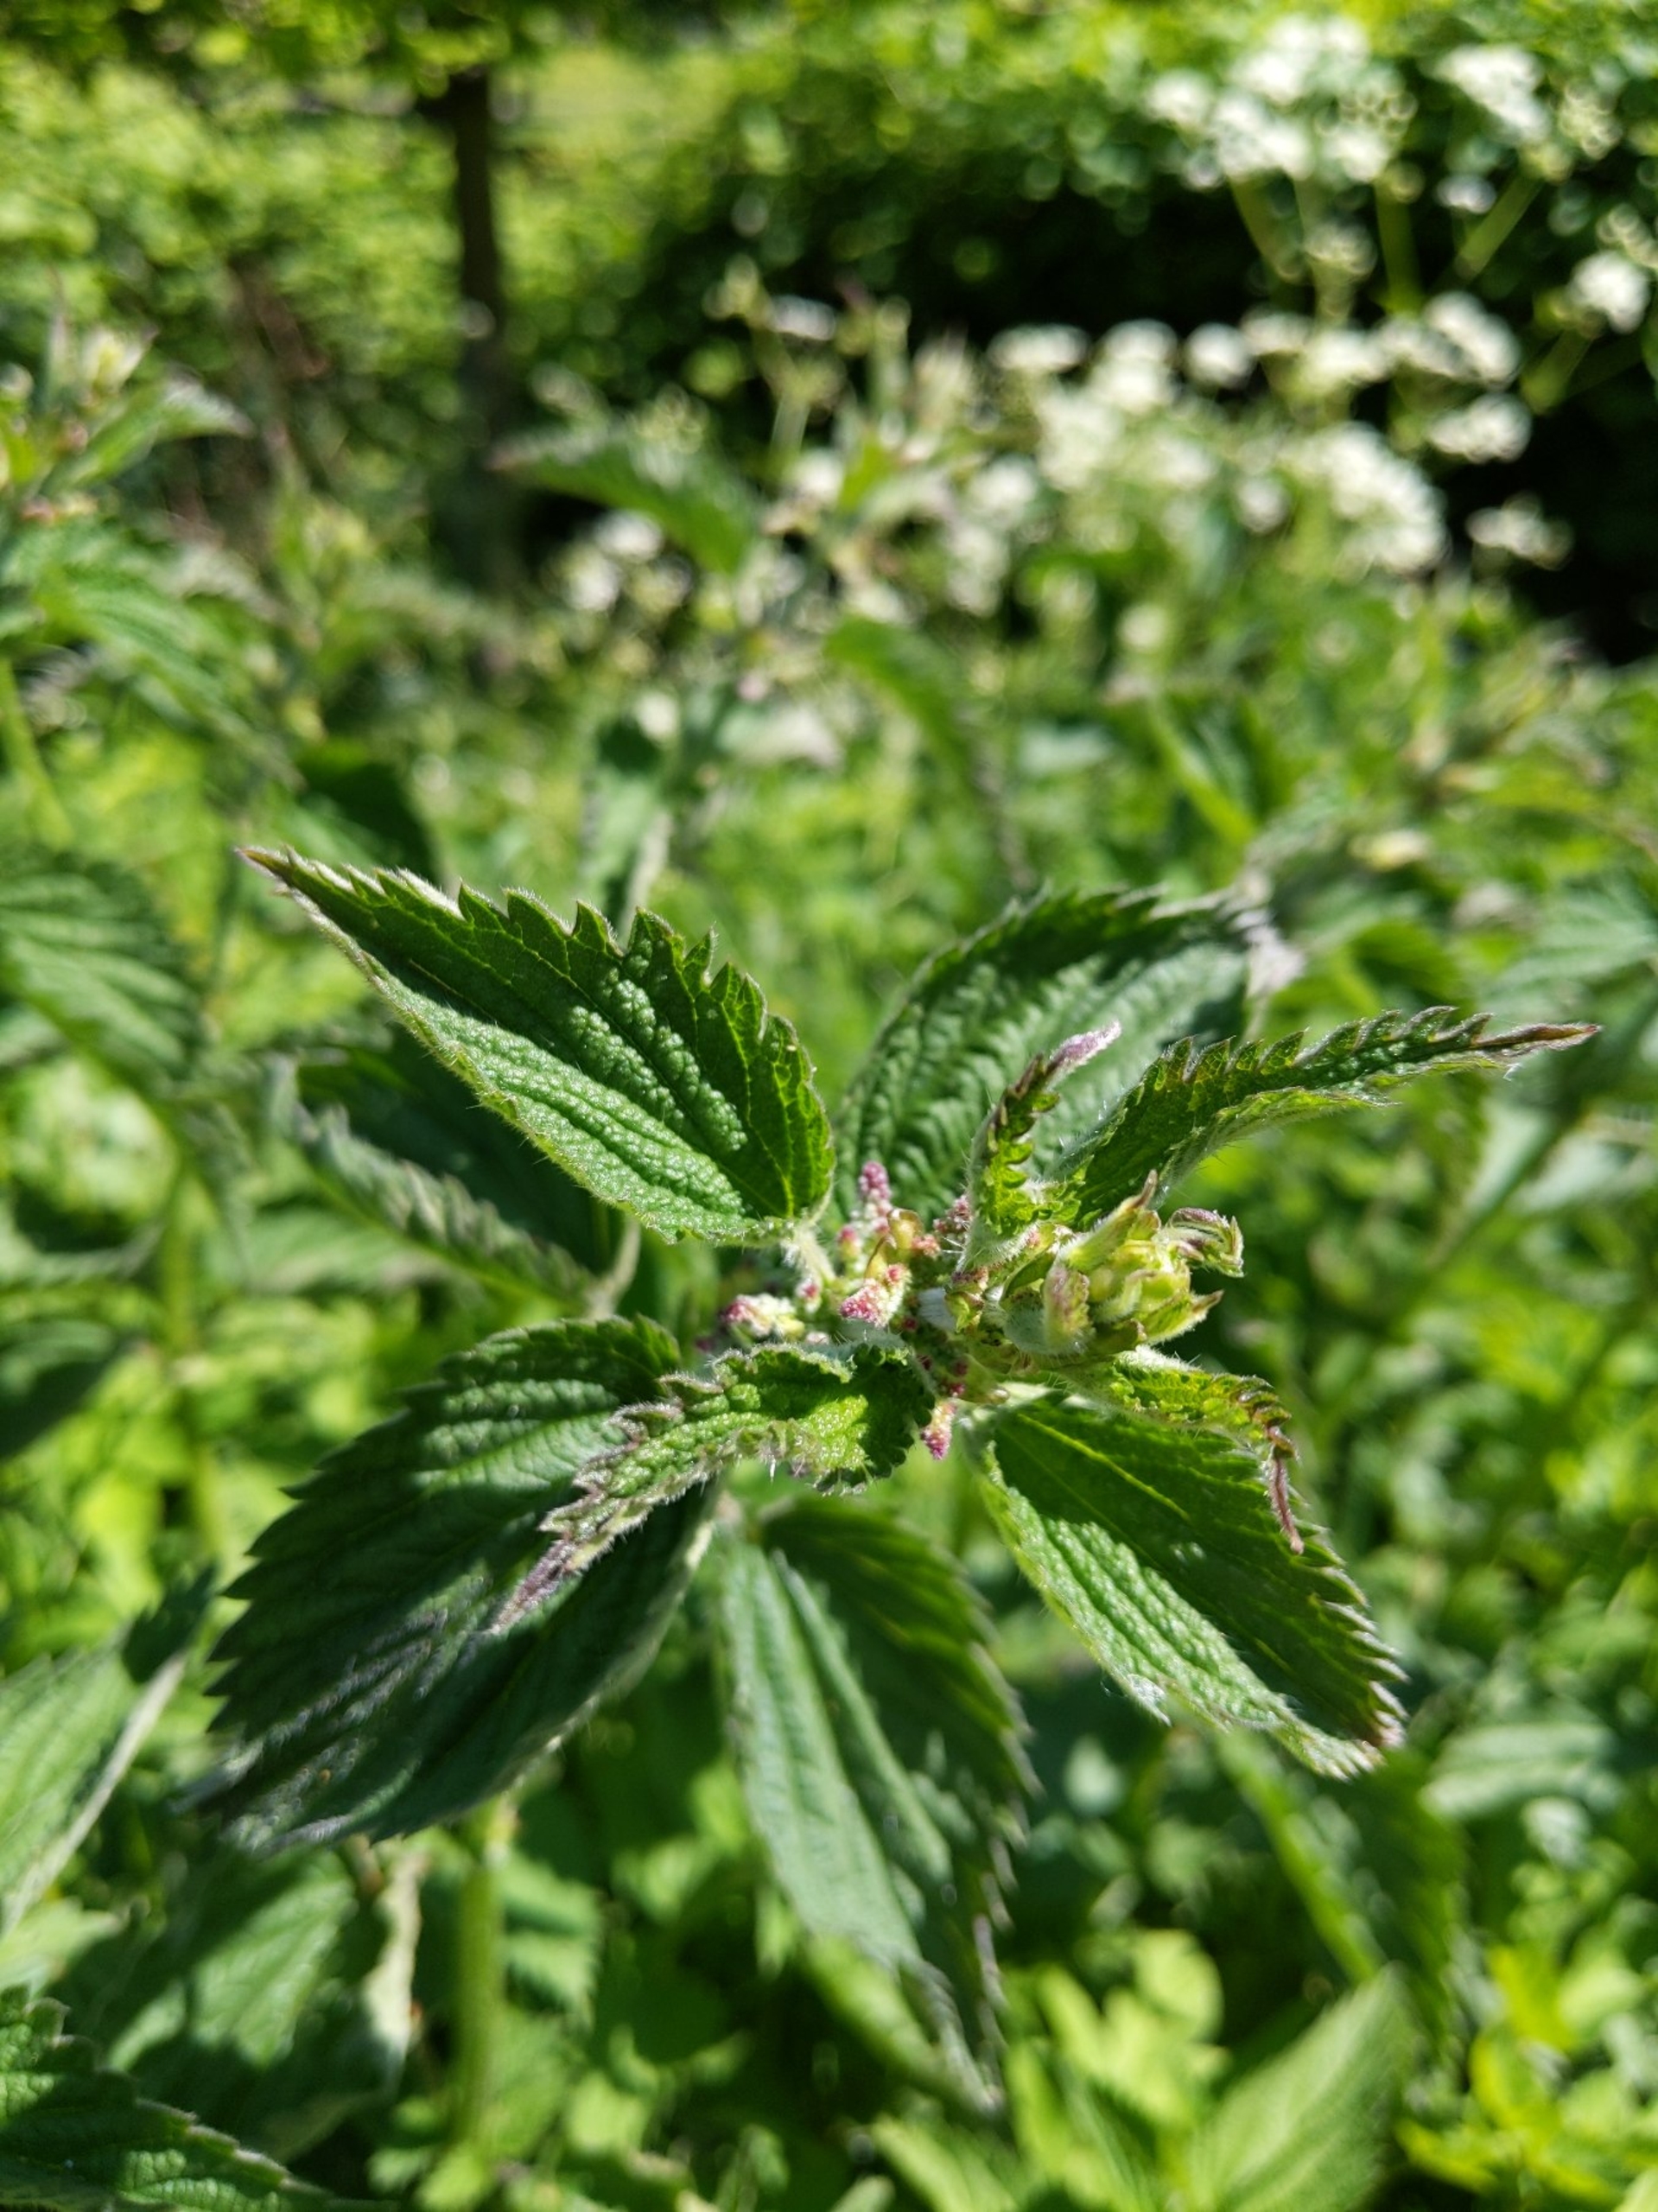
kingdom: Plantae
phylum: Tracheophyta
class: Magnoliopsida
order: Rosales
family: Urticaceae
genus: Urtica
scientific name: Urtica dioica
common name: Stor nælde
